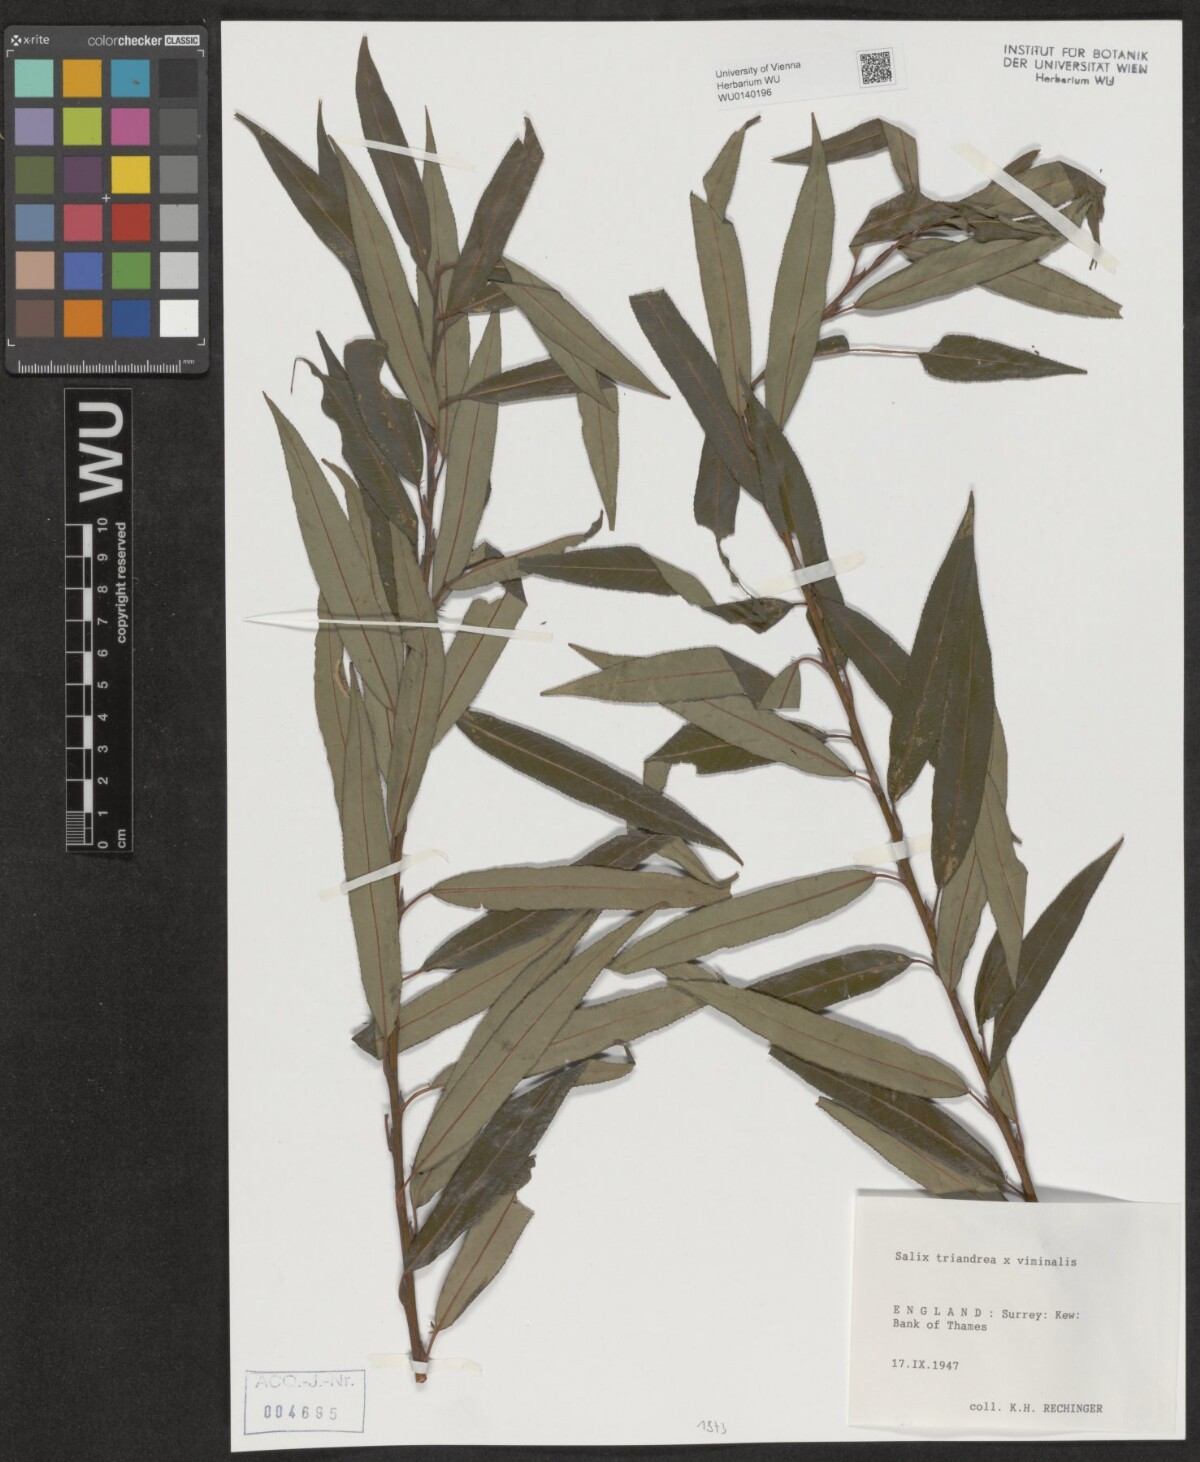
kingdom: Plantae
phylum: Tracheophyta
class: Magnoliopsida
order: Malpighiales
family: Salicaceae
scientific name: Salicaceae
